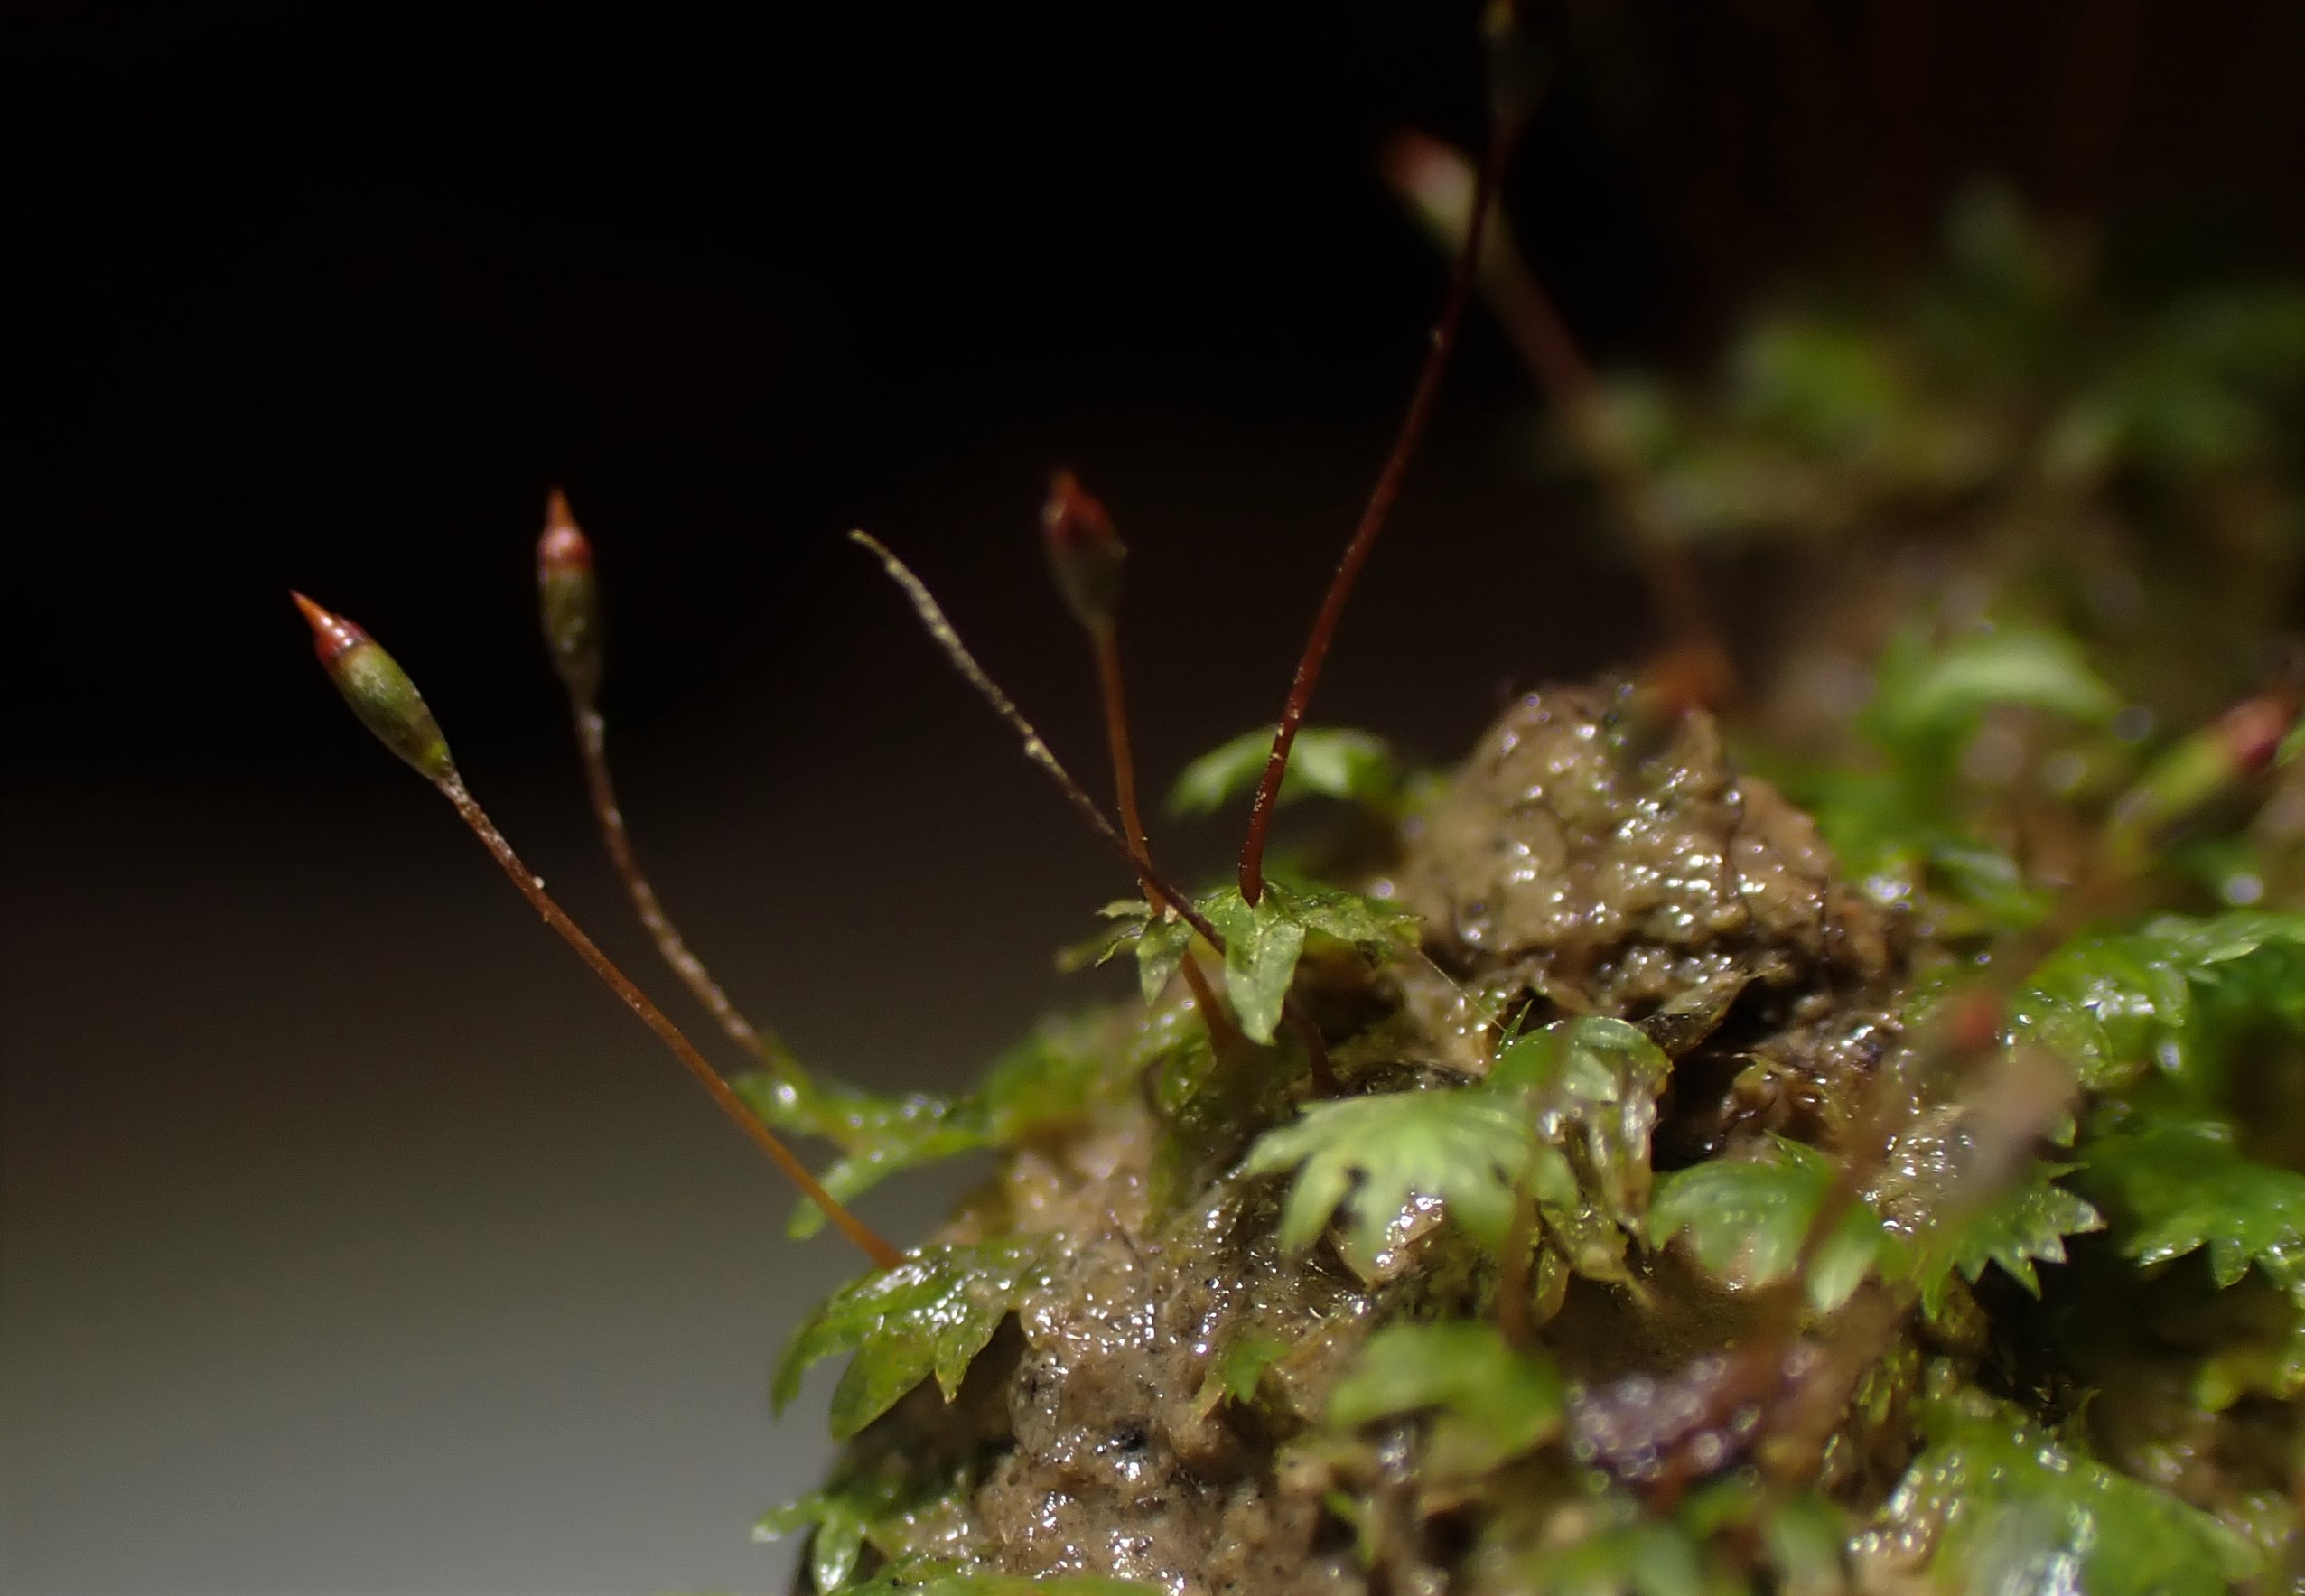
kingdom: Plantae
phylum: Bryophyta
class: Bryopsida
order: Dicranales
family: Fissidentaceae
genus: Fissidens
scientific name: Fissidens bryoides
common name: Top-rademos
